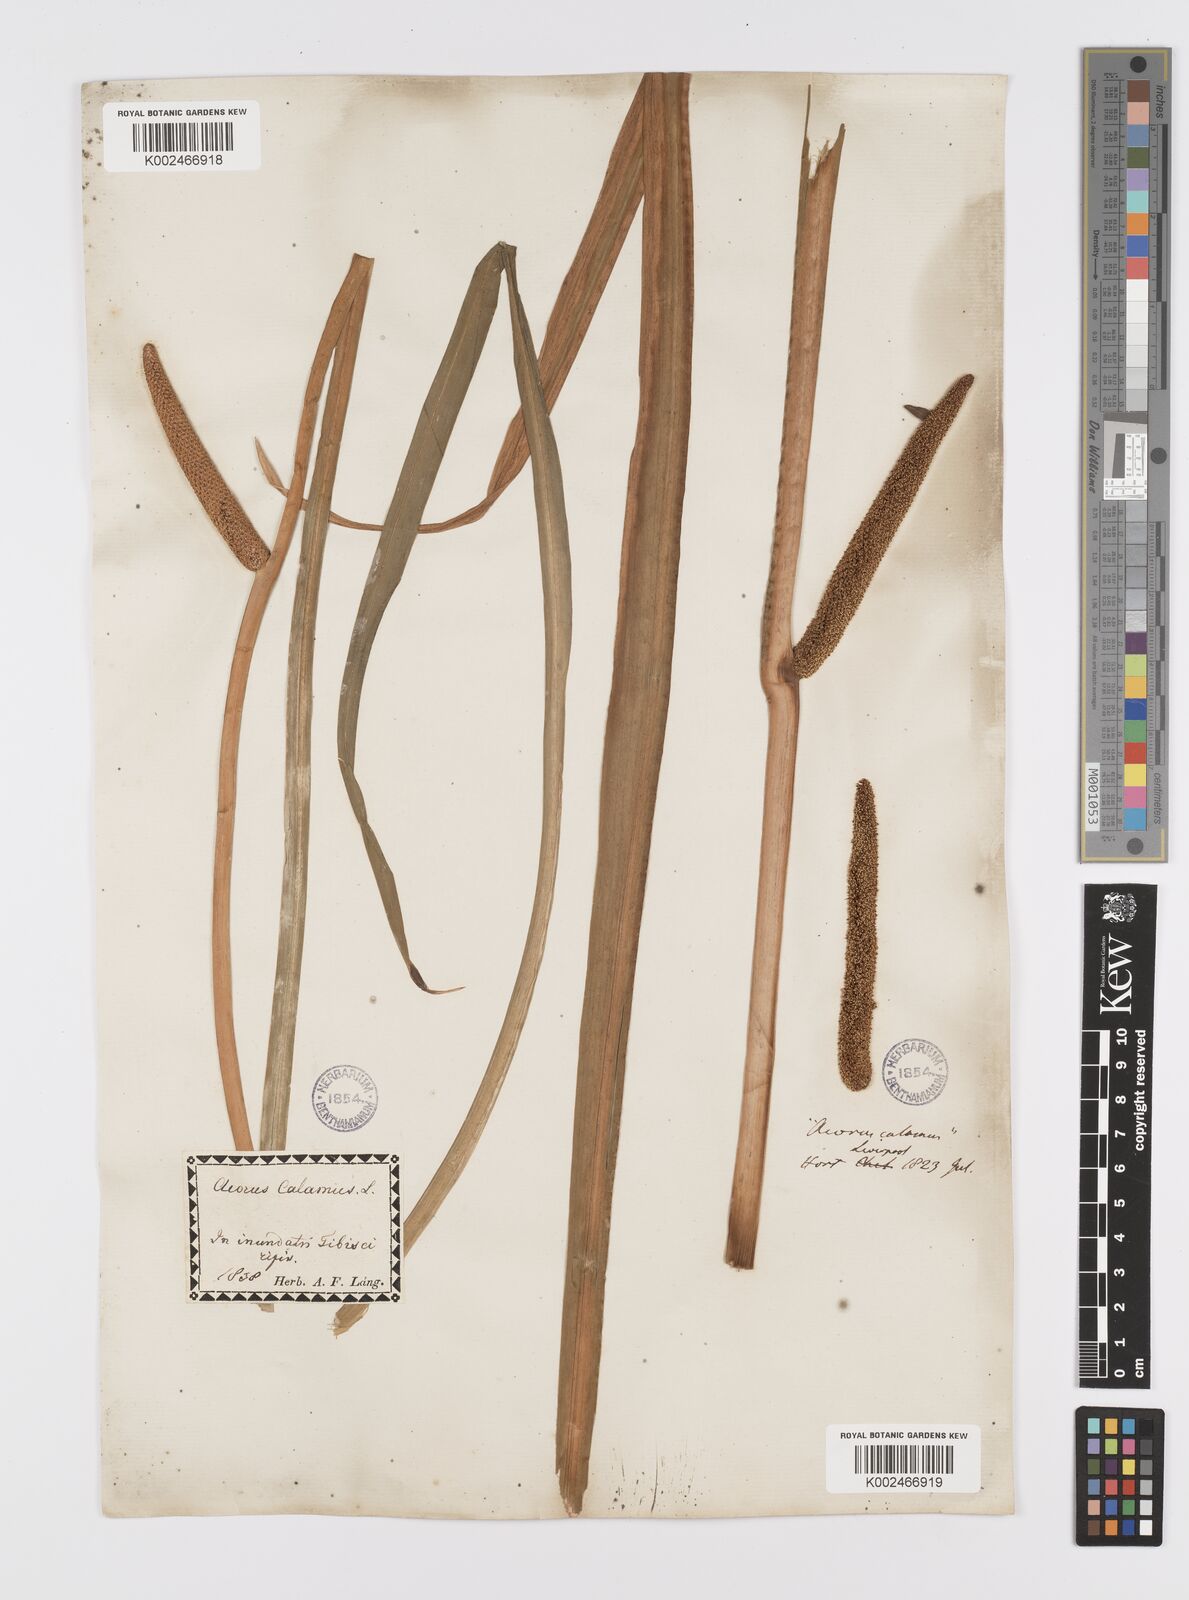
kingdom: Plantae
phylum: Tracheophyta
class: Liliopsida
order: Acorales
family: Acoraceae
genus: Acorus
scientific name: Acorus calamus
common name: Sweet-flag
